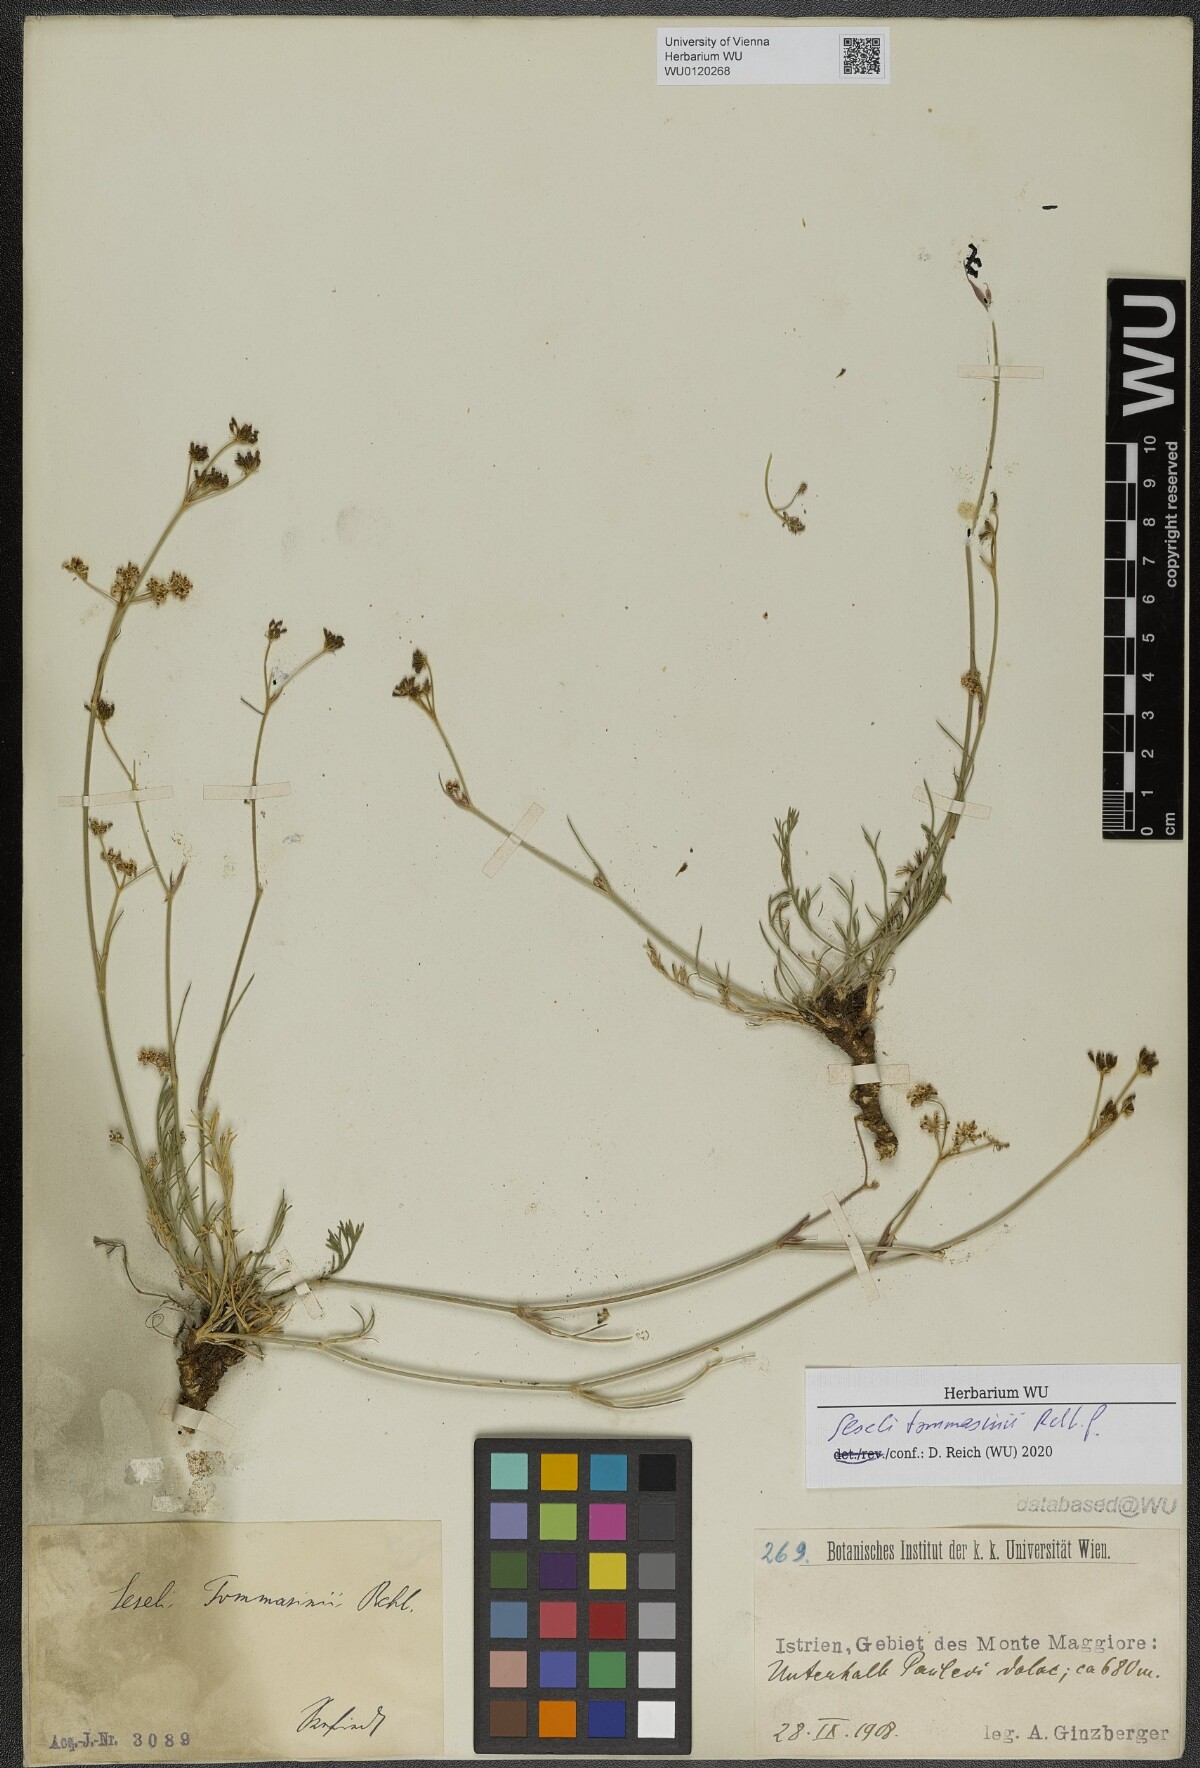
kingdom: Plantae
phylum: Tracheophyta
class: Magnoliopsida
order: Apiales
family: Apiaceae
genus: Seseli
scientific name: Seseli montanum
